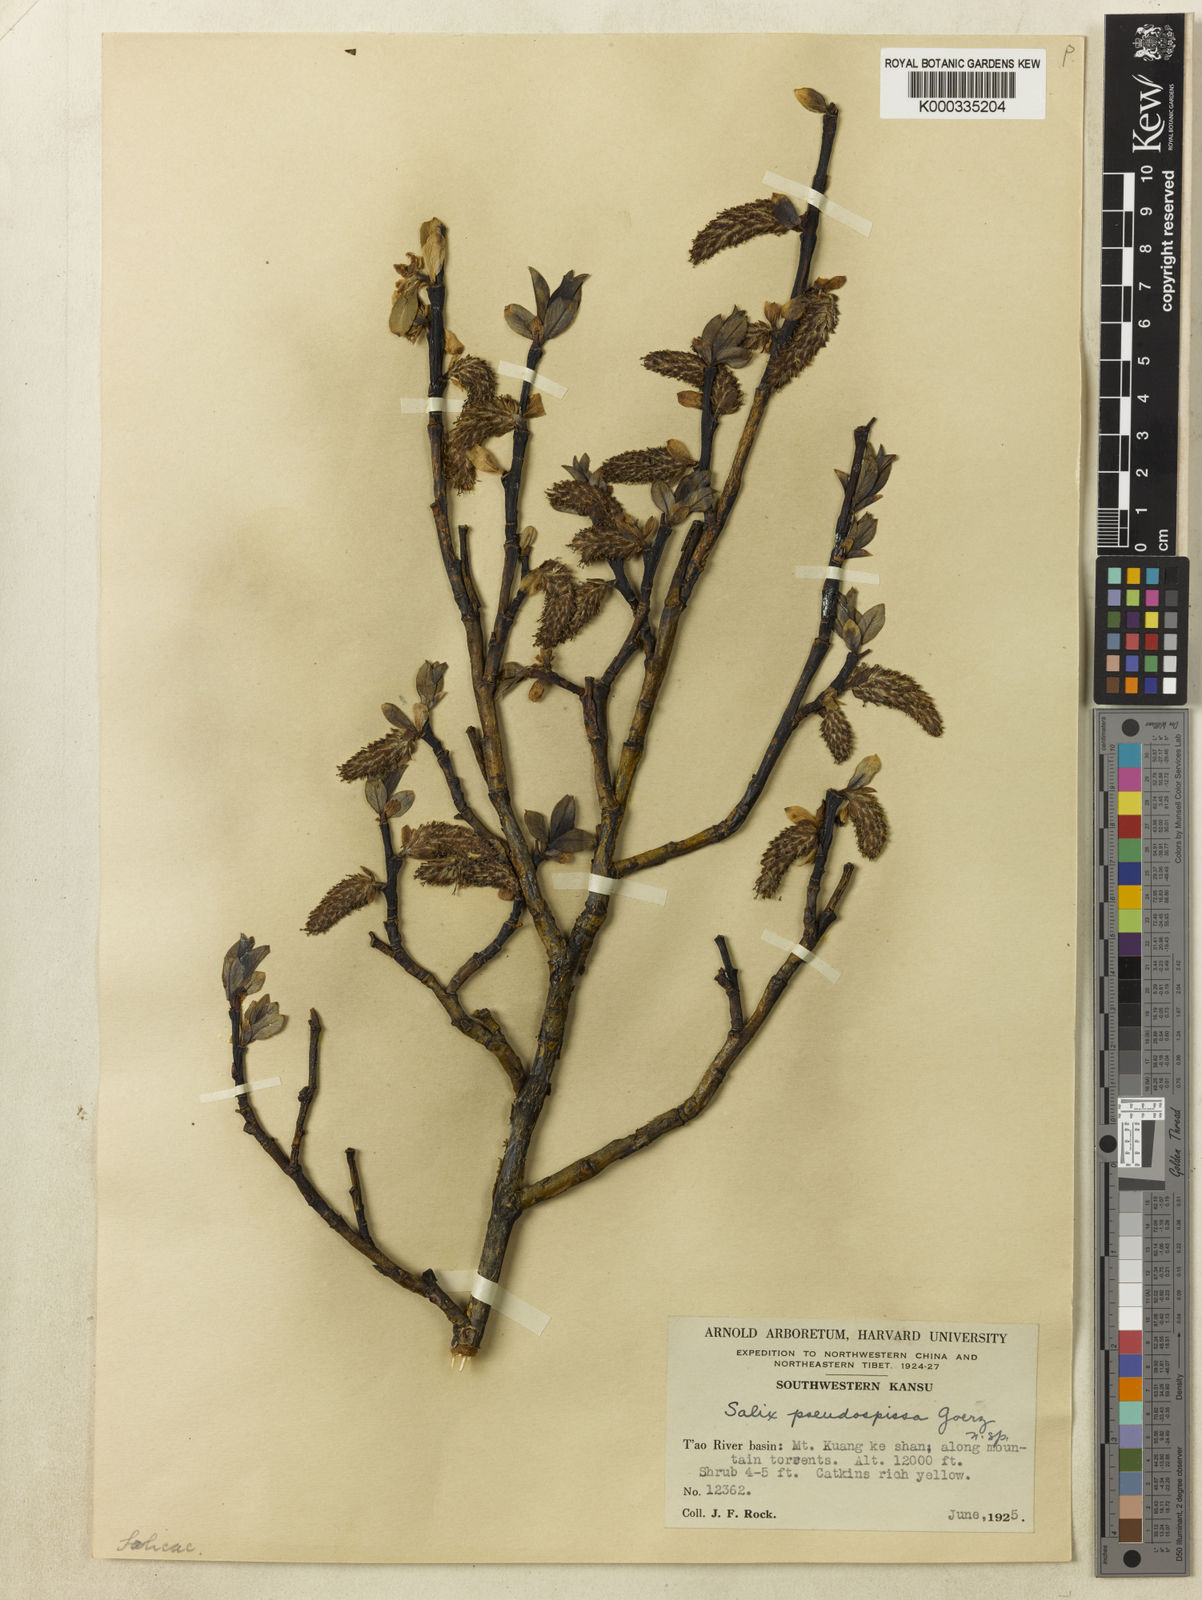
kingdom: Plantae
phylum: Tracheophyta
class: Magnoliopsida
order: Malpighiales
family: Salicaceae
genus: Salix
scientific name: Salix
